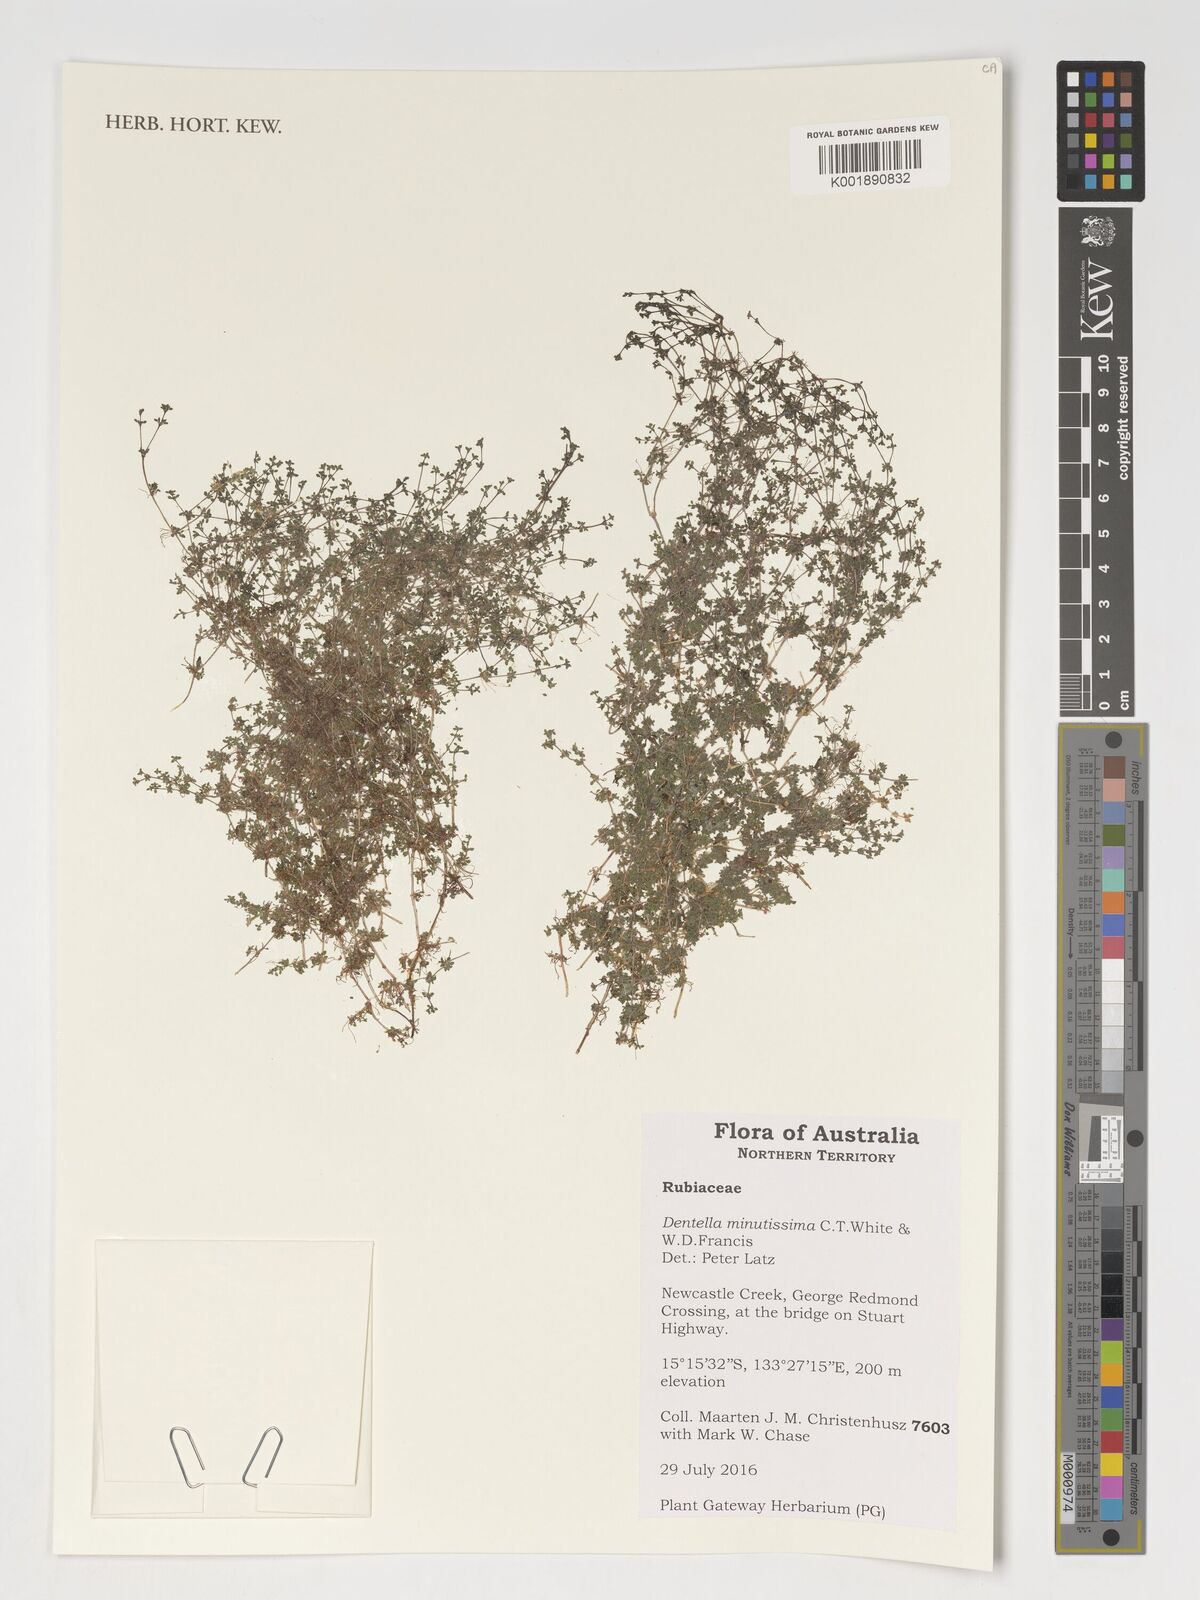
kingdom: Plantae
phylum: Tracheophyta
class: Magnoliopsida
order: Gentianales
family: Rubiaceae
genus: Dentella
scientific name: Dentella minutissima
